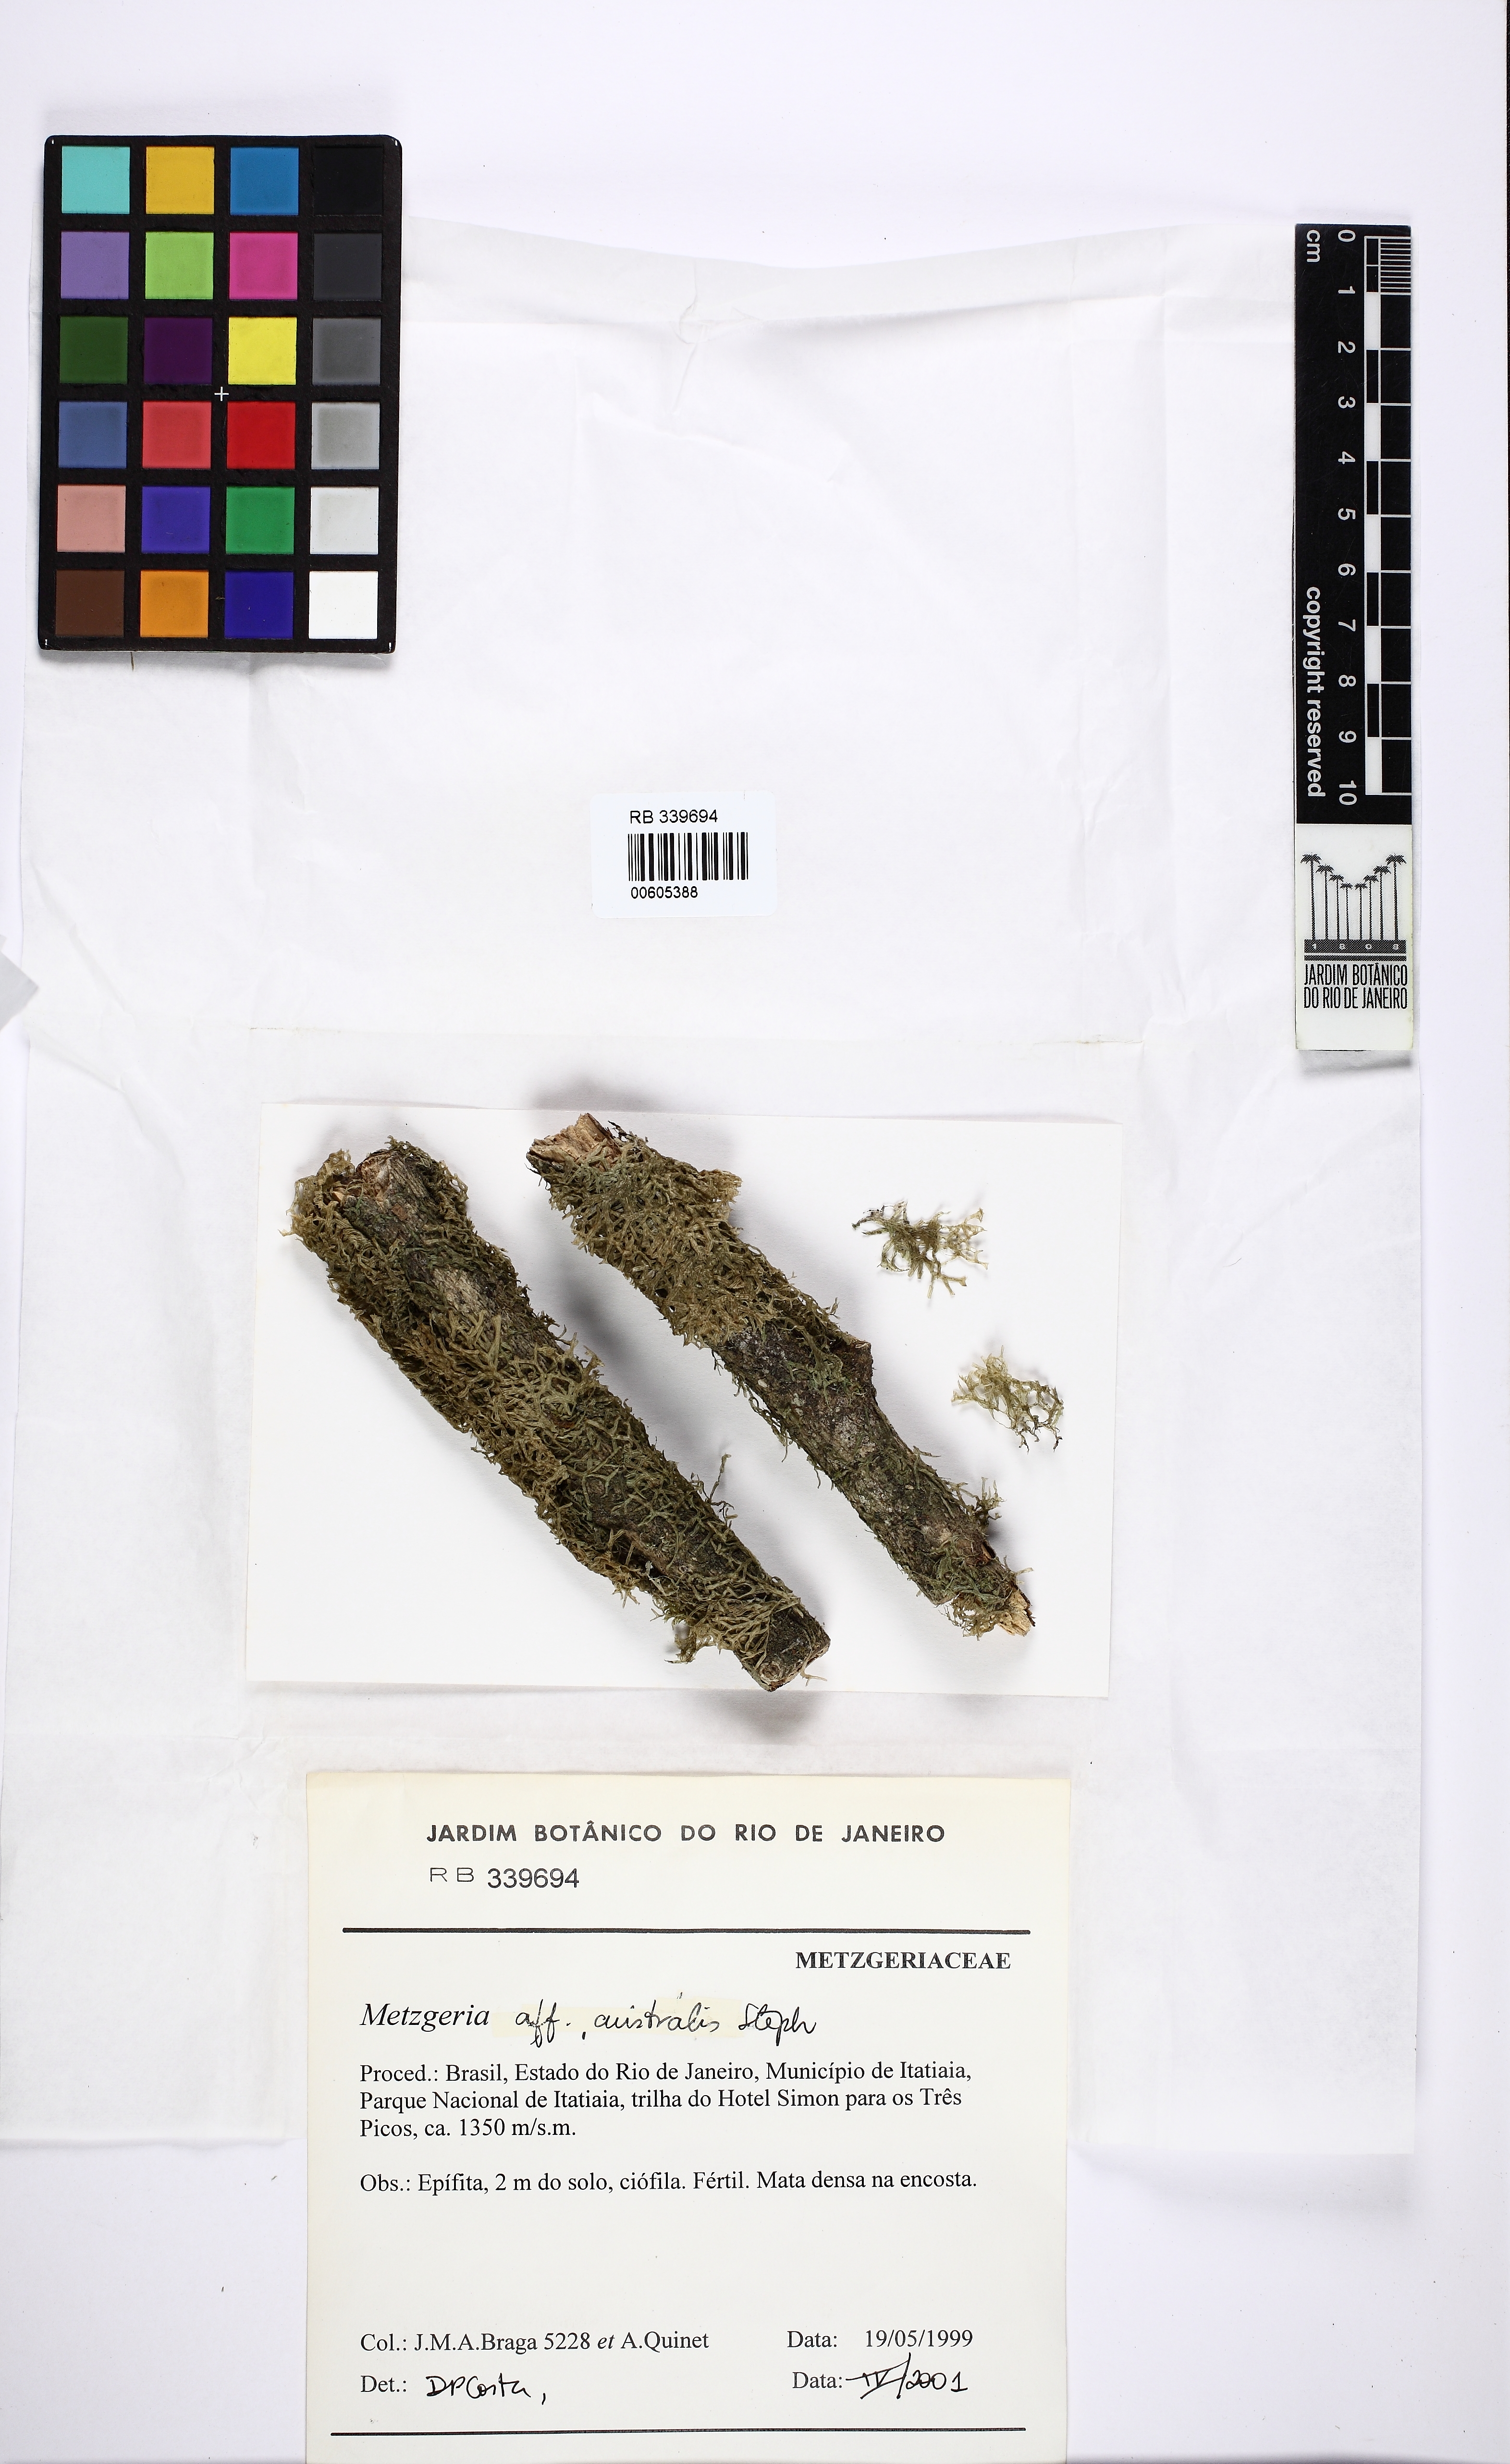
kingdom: Plantae
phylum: Marchantiophyta
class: Jungermanniopsida
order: Metzgeriales
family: Metzgeriaceae
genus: Metzgeria
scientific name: Metzgeria leptoneura
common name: Hooked veilwort
